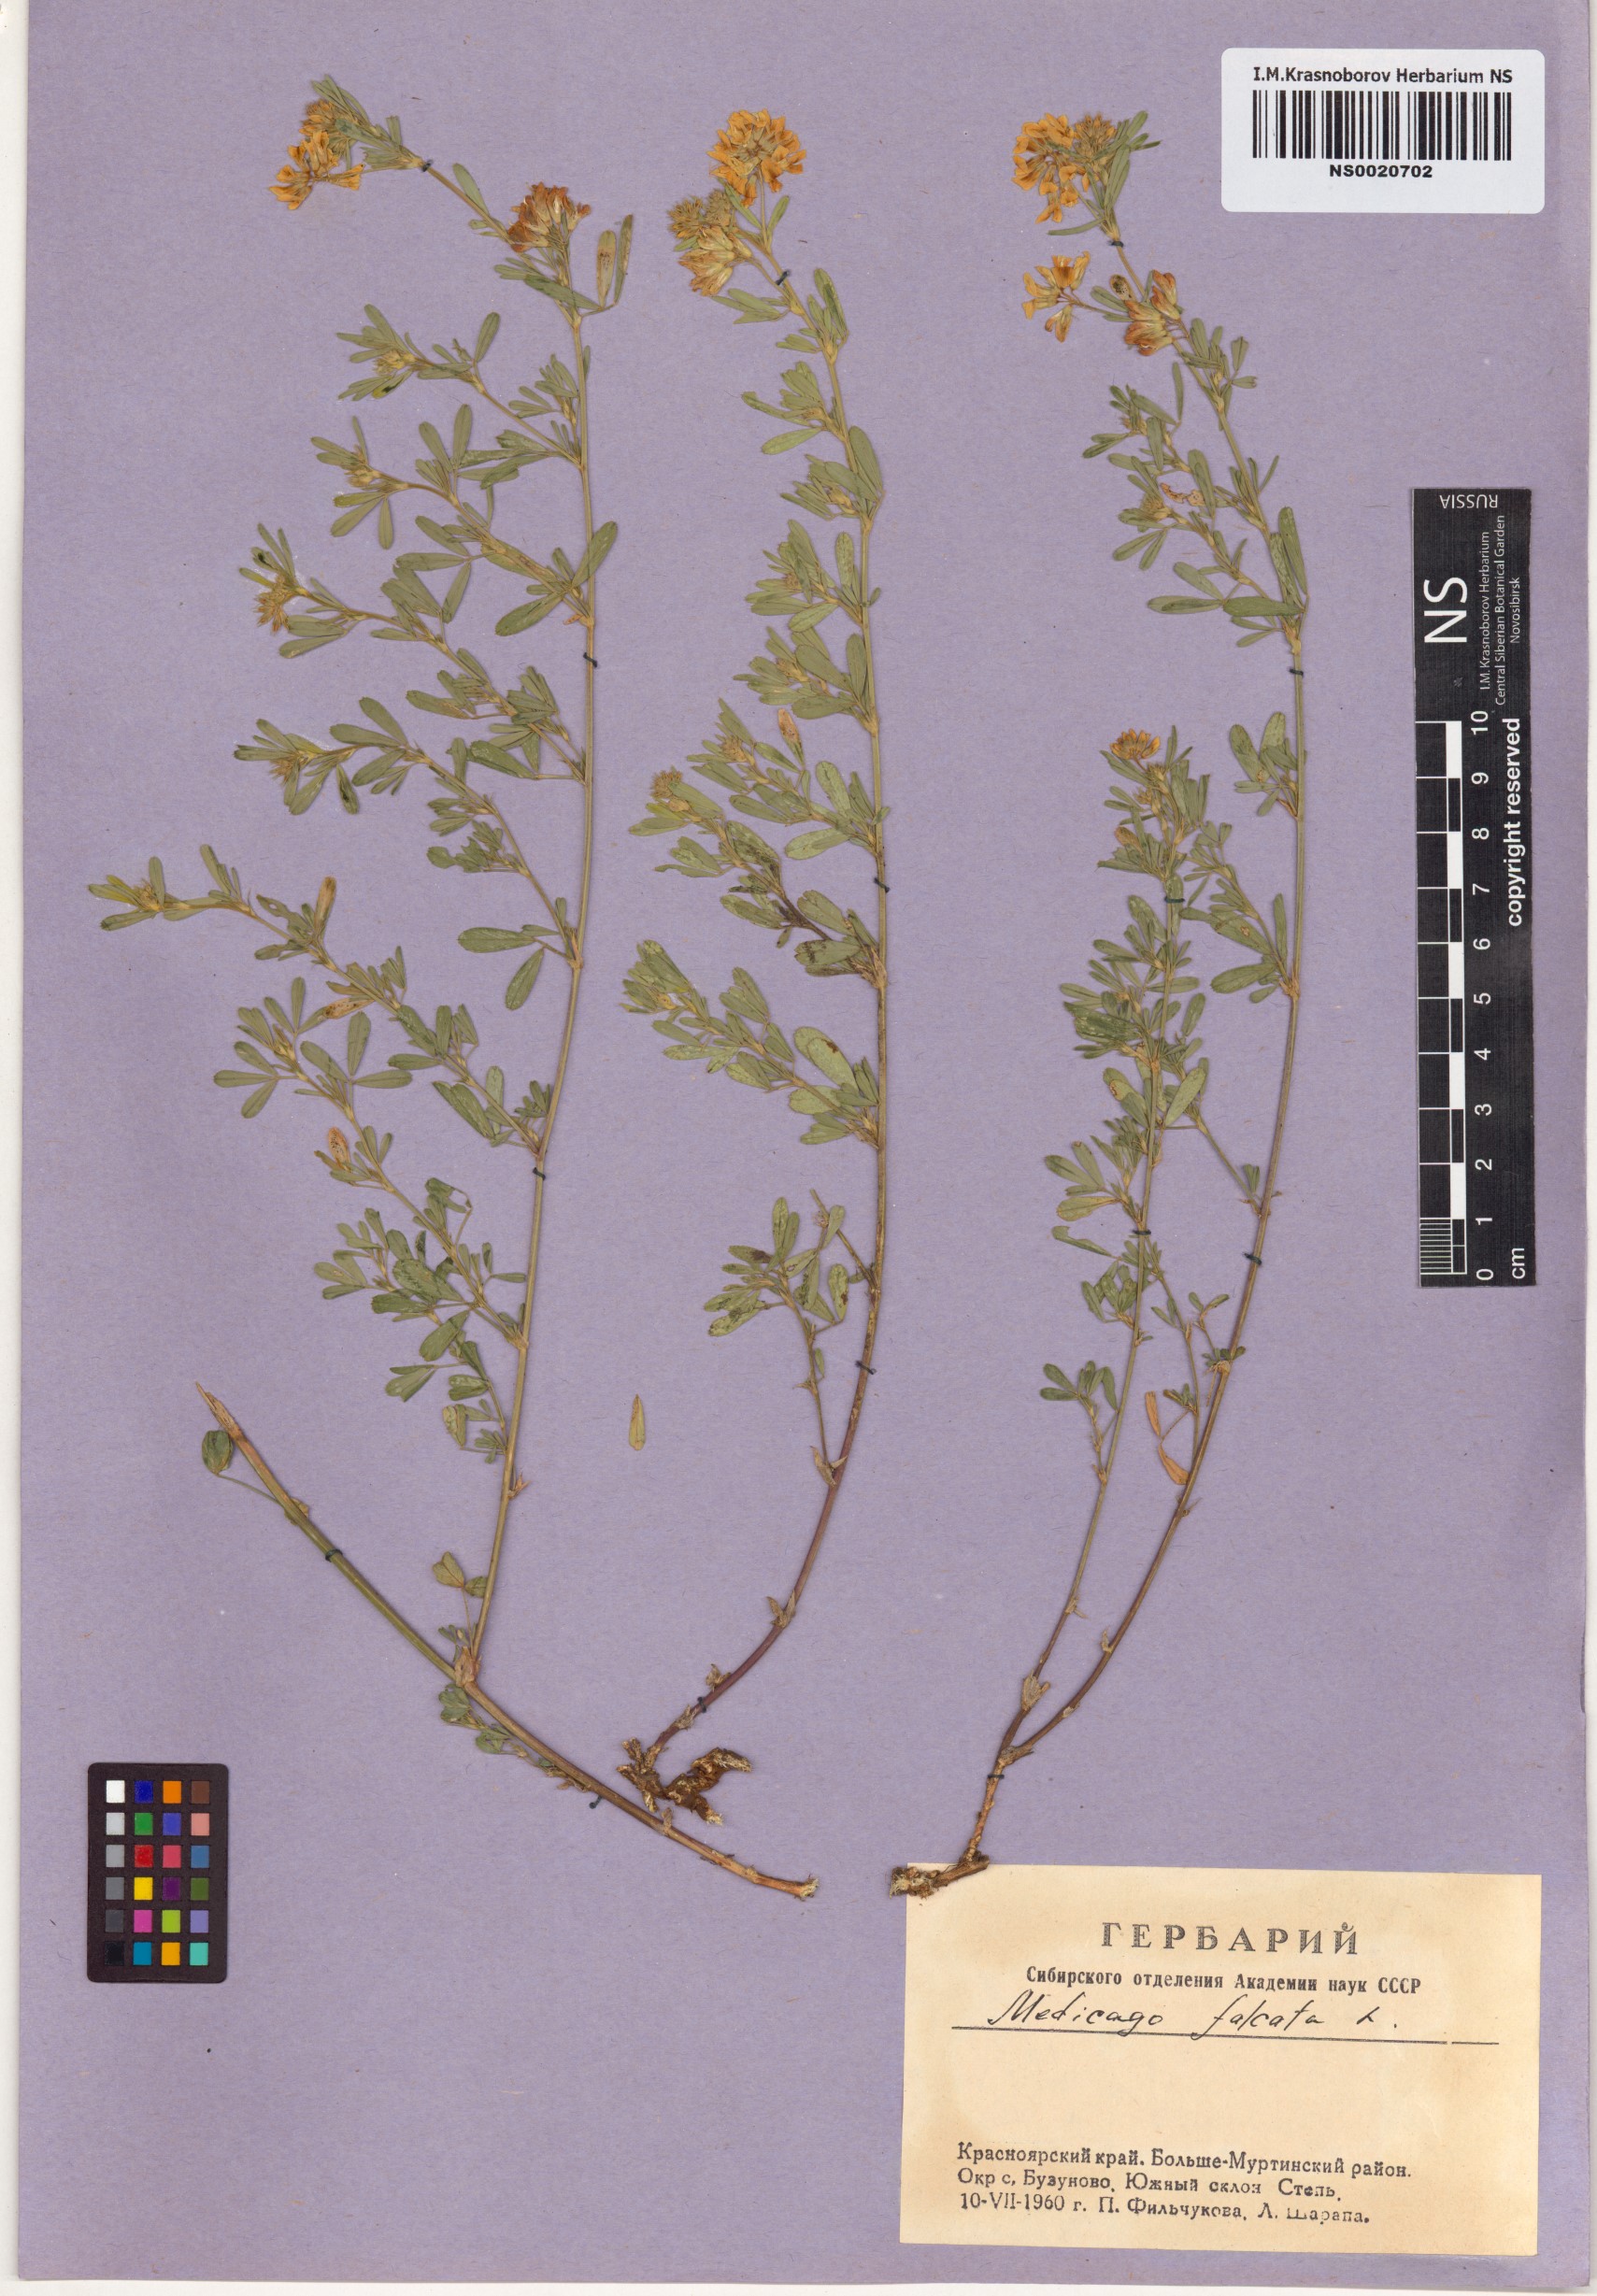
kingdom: Plantae
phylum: Tracheophyta
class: Magnoliopsida
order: Fabales
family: Fabaceae
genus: Medicago
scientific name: Medicago falcata
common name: Sickle medick
